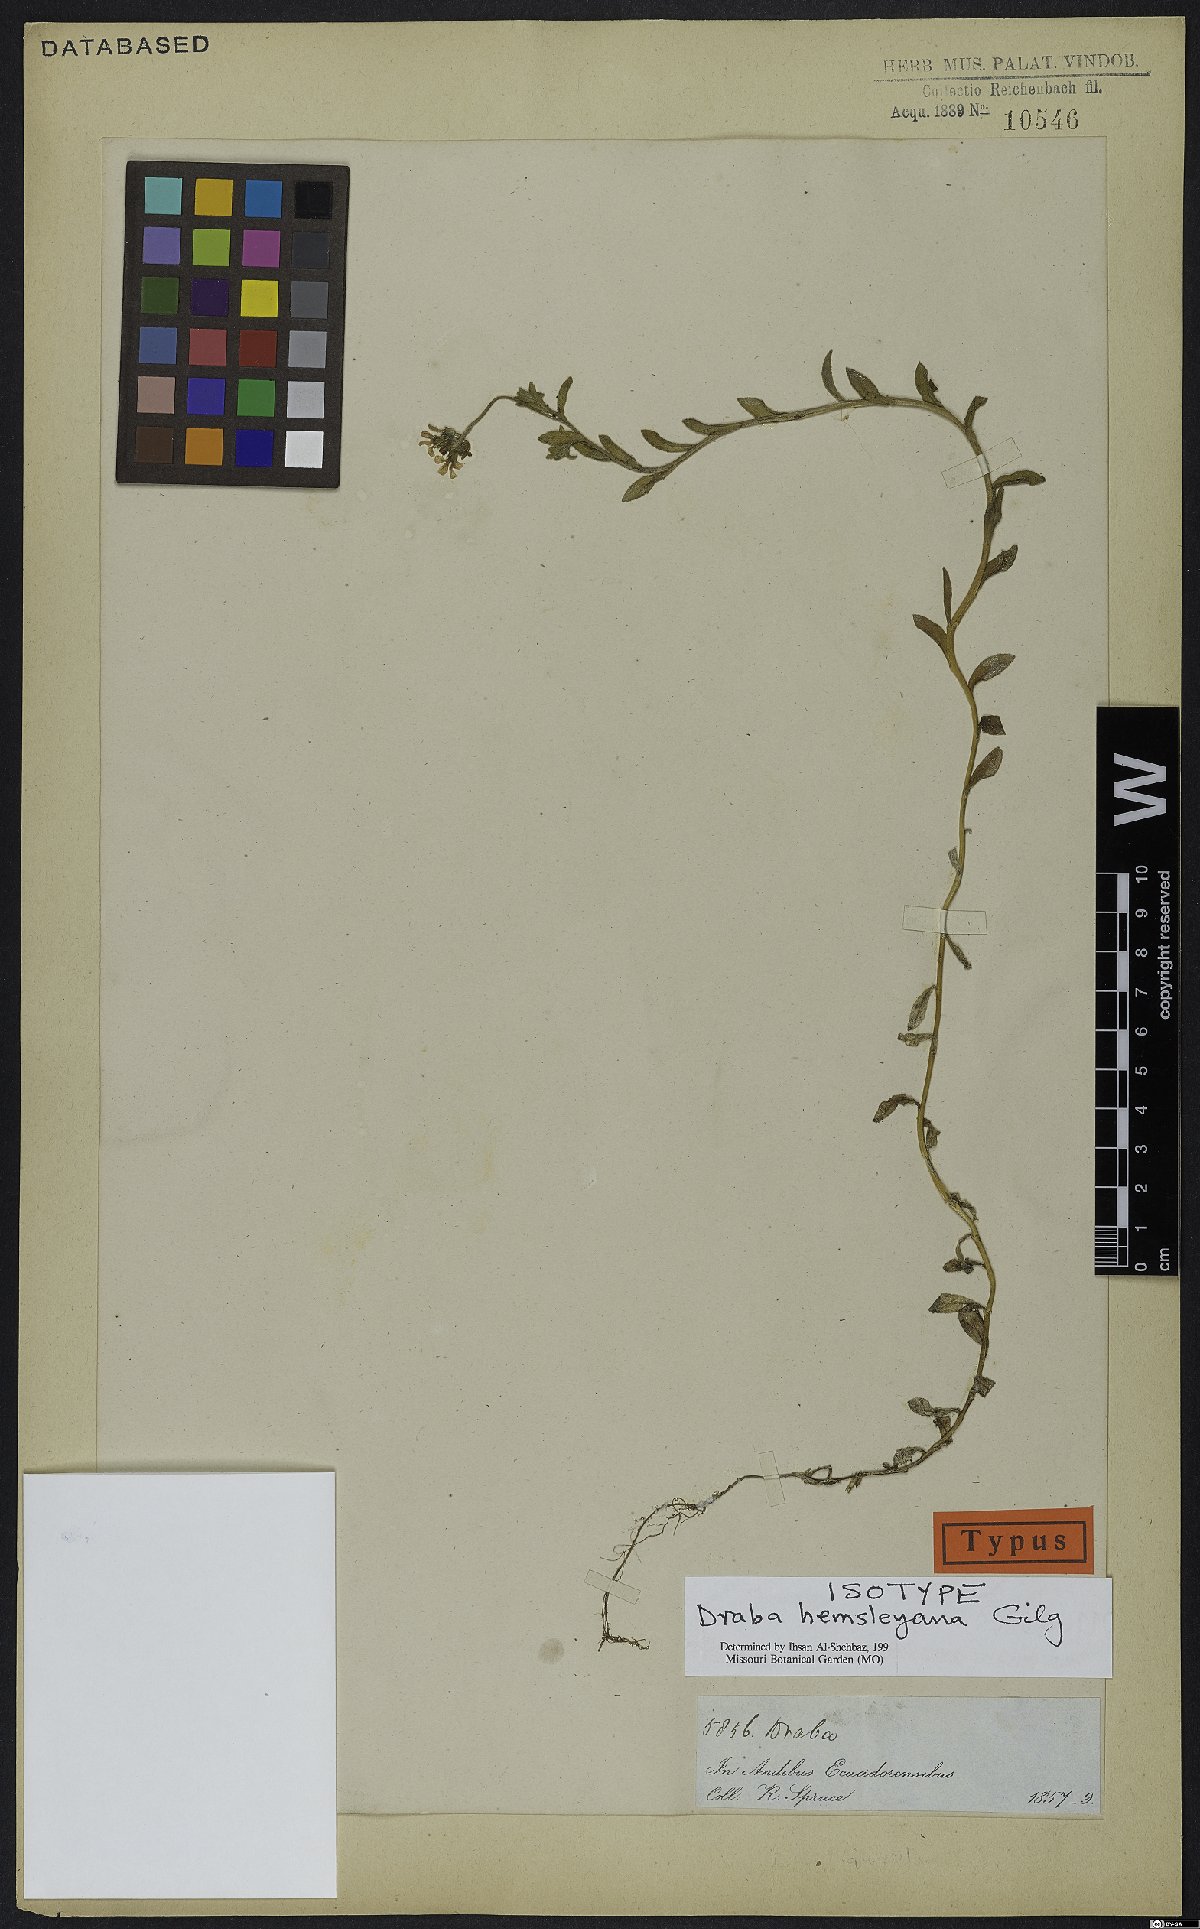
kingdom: Plantae
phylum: Tracheophyta
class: Magnoliopsida
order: Brassicales
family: Brassicaceae
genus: Draba
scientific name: Draba hemsleyana
